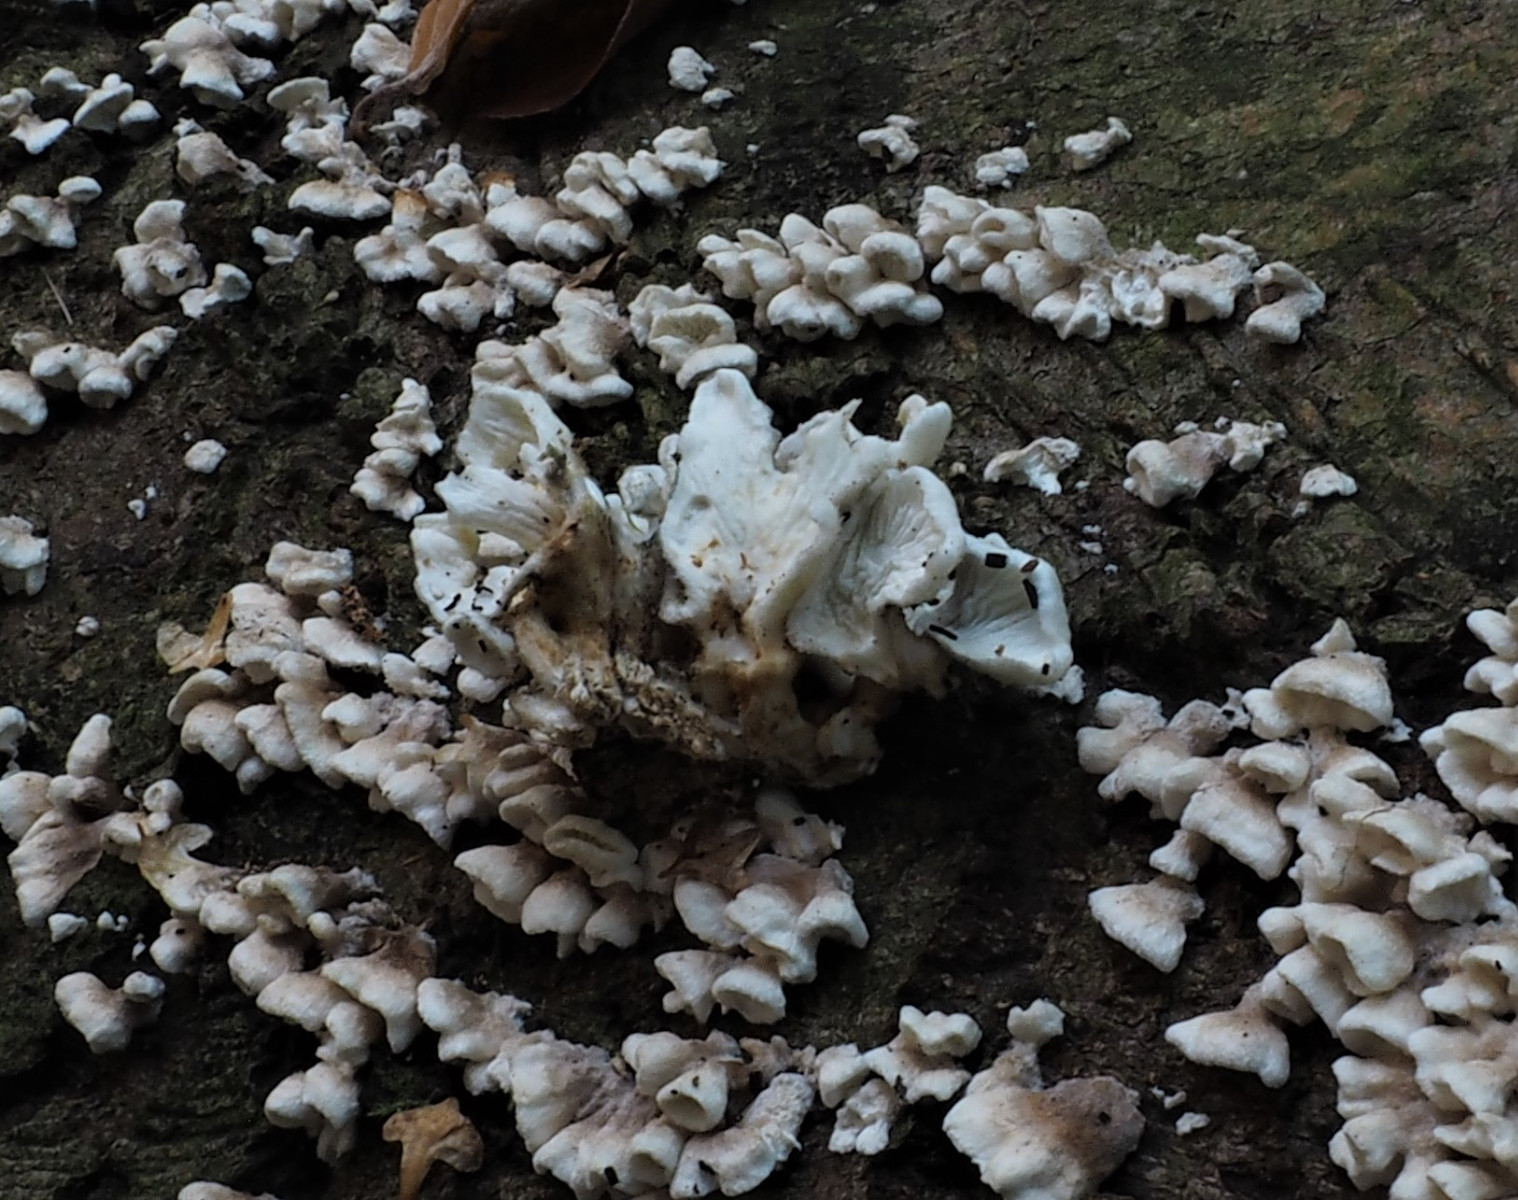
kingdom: Fungi
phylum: Basidiomycota
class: Agaricomycetes
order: Amylocorticiales
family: Amylocorticiaceae
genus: Plicaturopsis
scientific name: Plicaturopsis crispa
